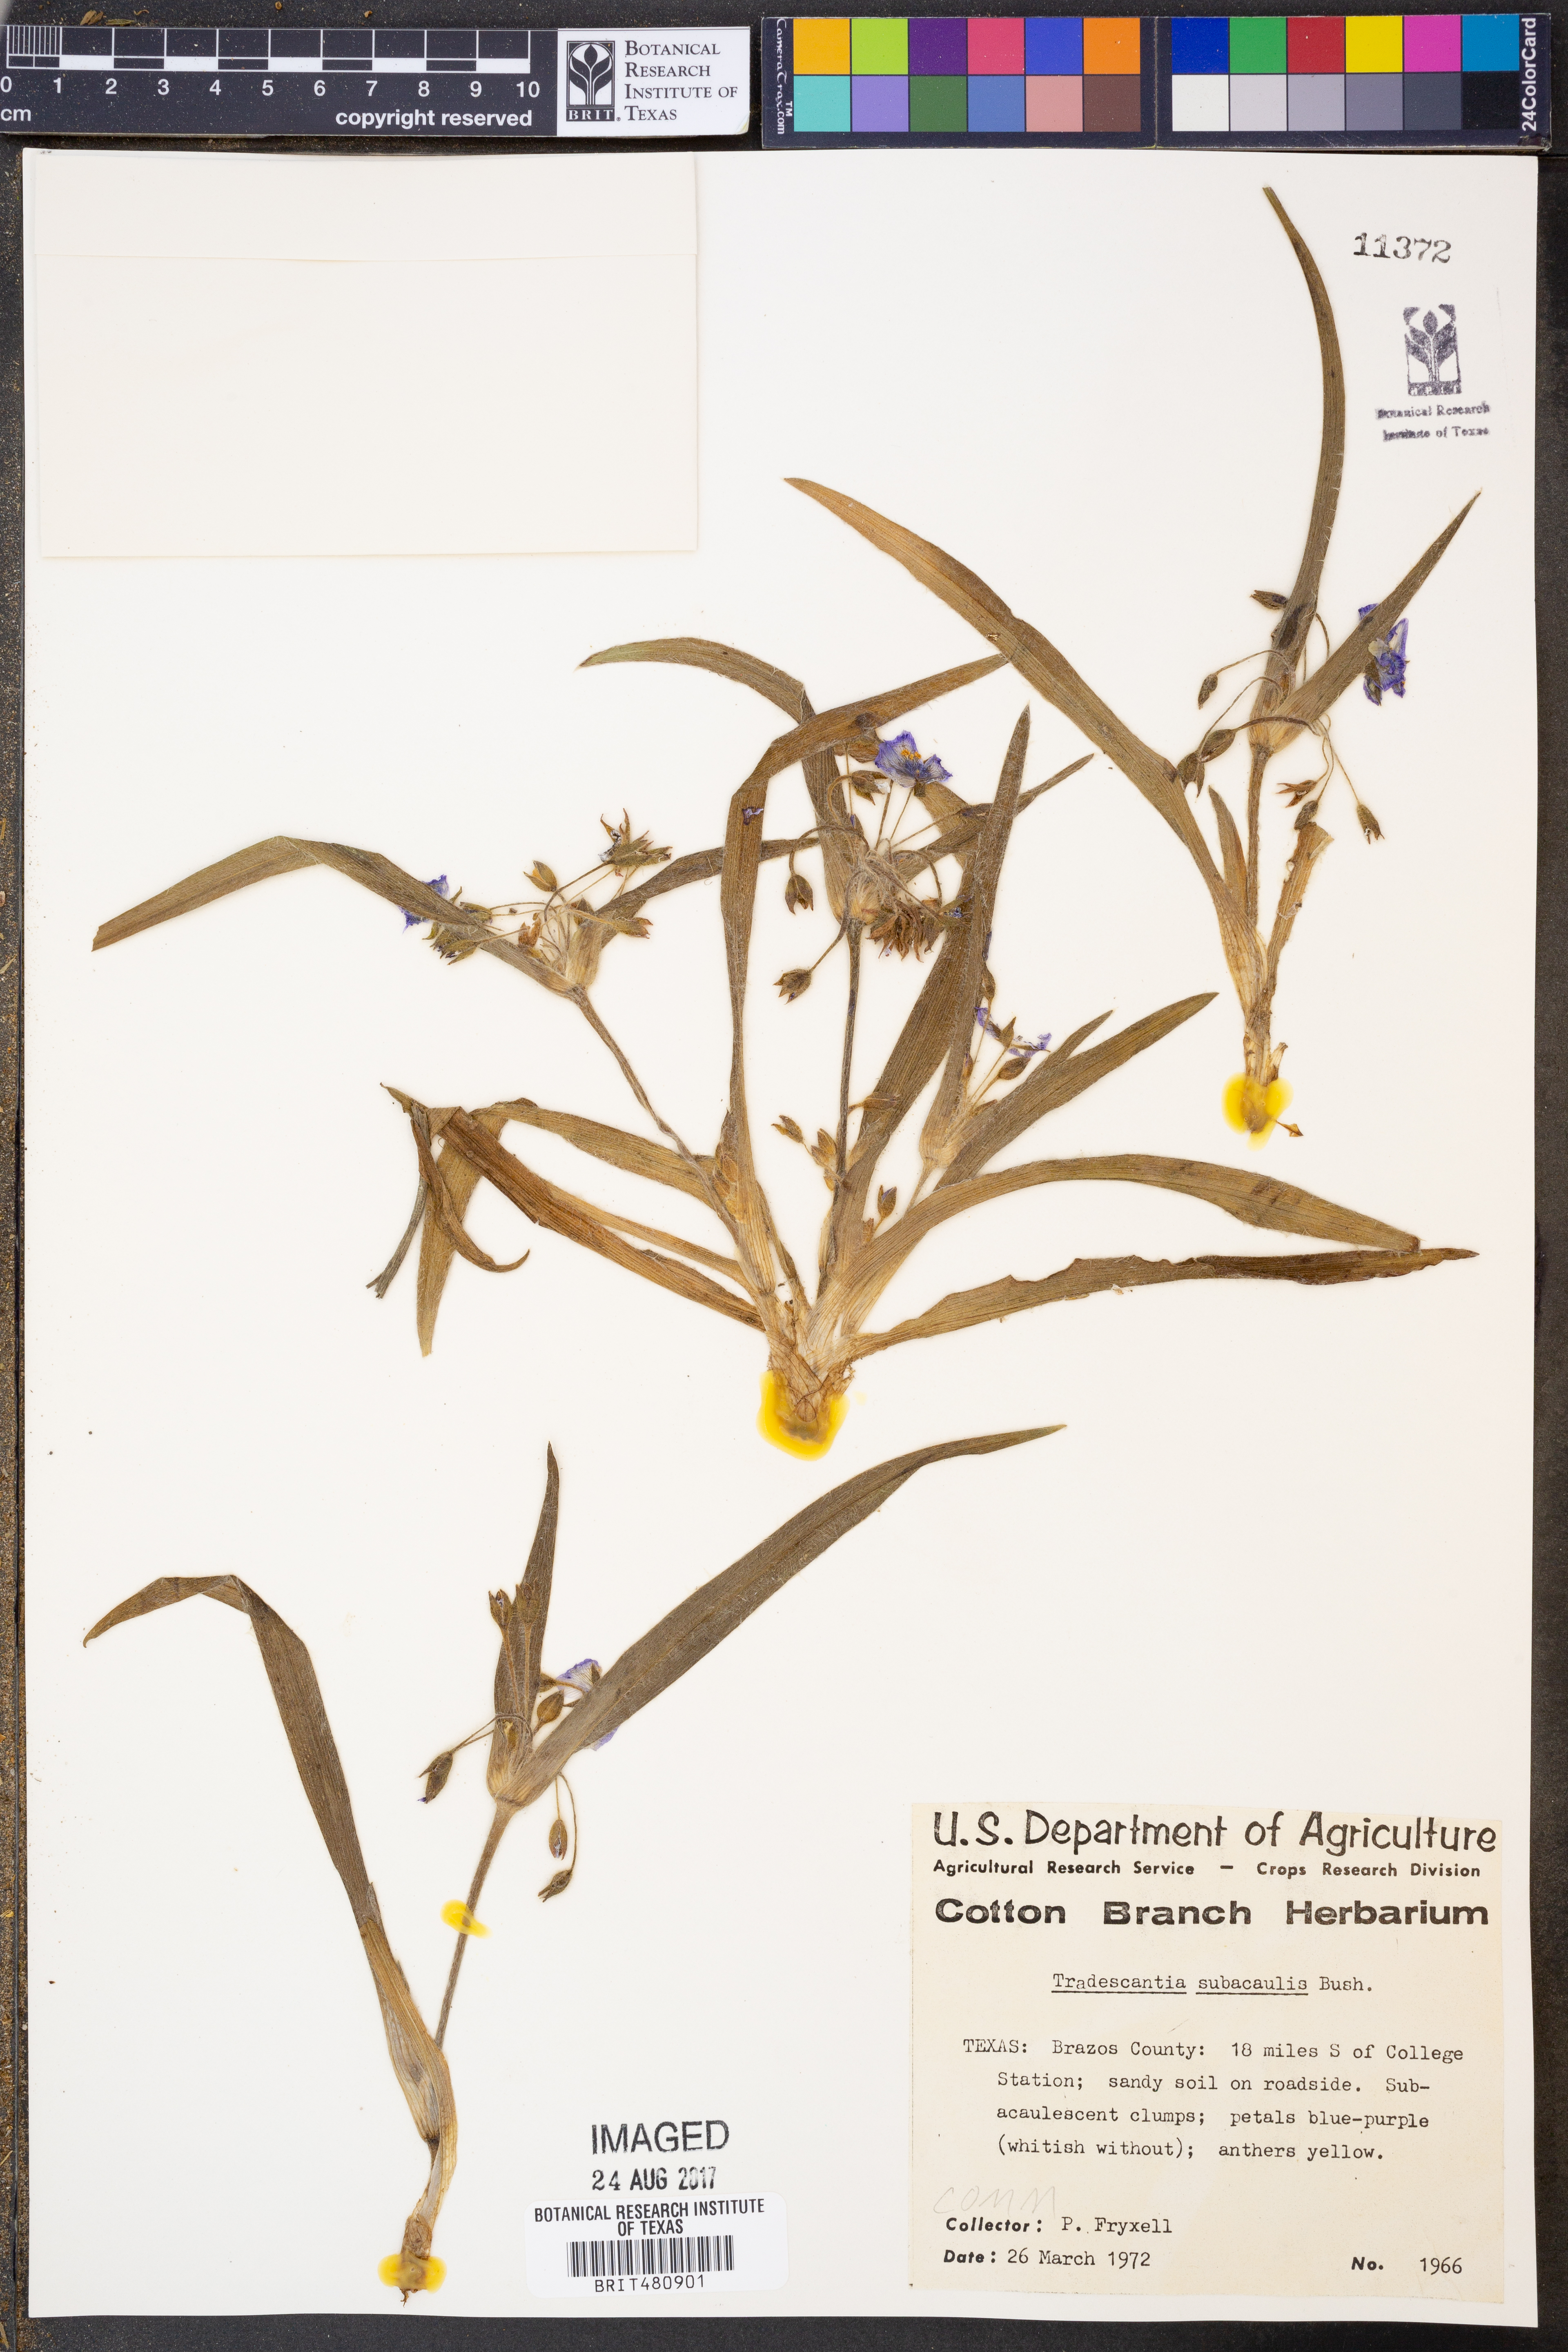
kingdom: Plantae
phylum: Tracheophyta
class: Liliopsida
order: Commelinales
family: Commelinaceae
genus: Tradescantia
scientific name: Tradescantia subacaulis
